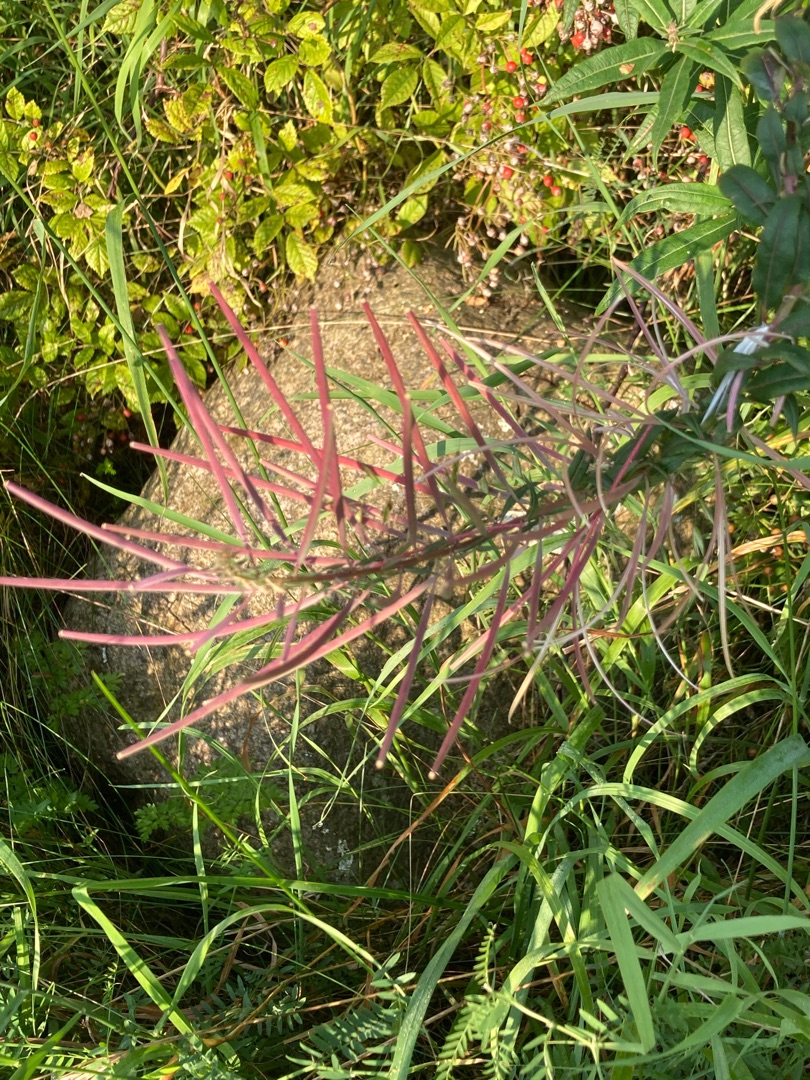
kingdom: Plantae
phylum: Tracheophyta
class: Magnoliopsida
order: Myrtales
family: Onagraceae
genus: Chamaenerion
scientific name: Chamaenerion angustifolium
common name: Gederams
